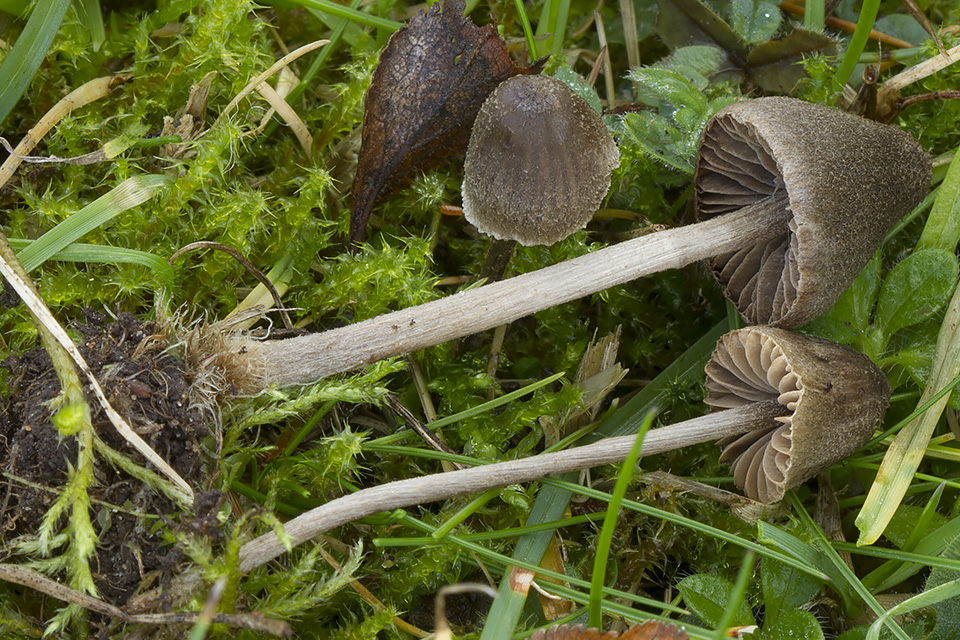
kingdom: Fungi
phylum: Basidiomycota
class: Agaricomycetes
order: Agaricales
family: Entolomataceae
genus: Entoloma
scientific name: Entoloma hirtum
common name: askegrå rødblad
